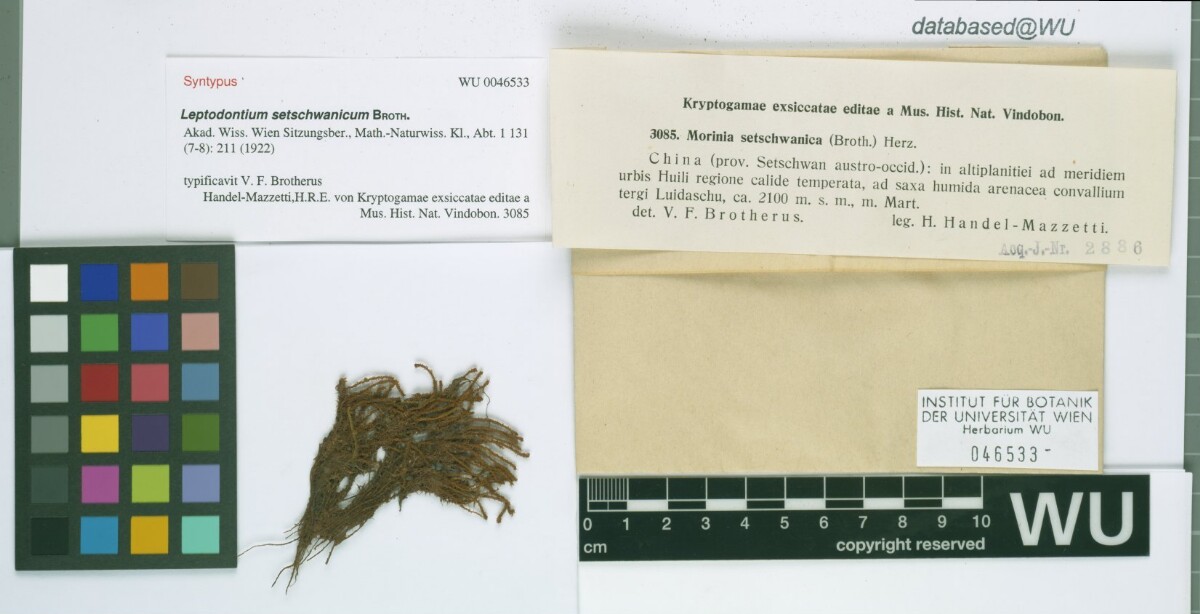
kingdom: Plantae
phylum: Bryophyta
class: Bryopsida
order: Pottiales
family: Pottiaceae
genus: Geheebia
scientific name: Geheebia erosodenticulata
